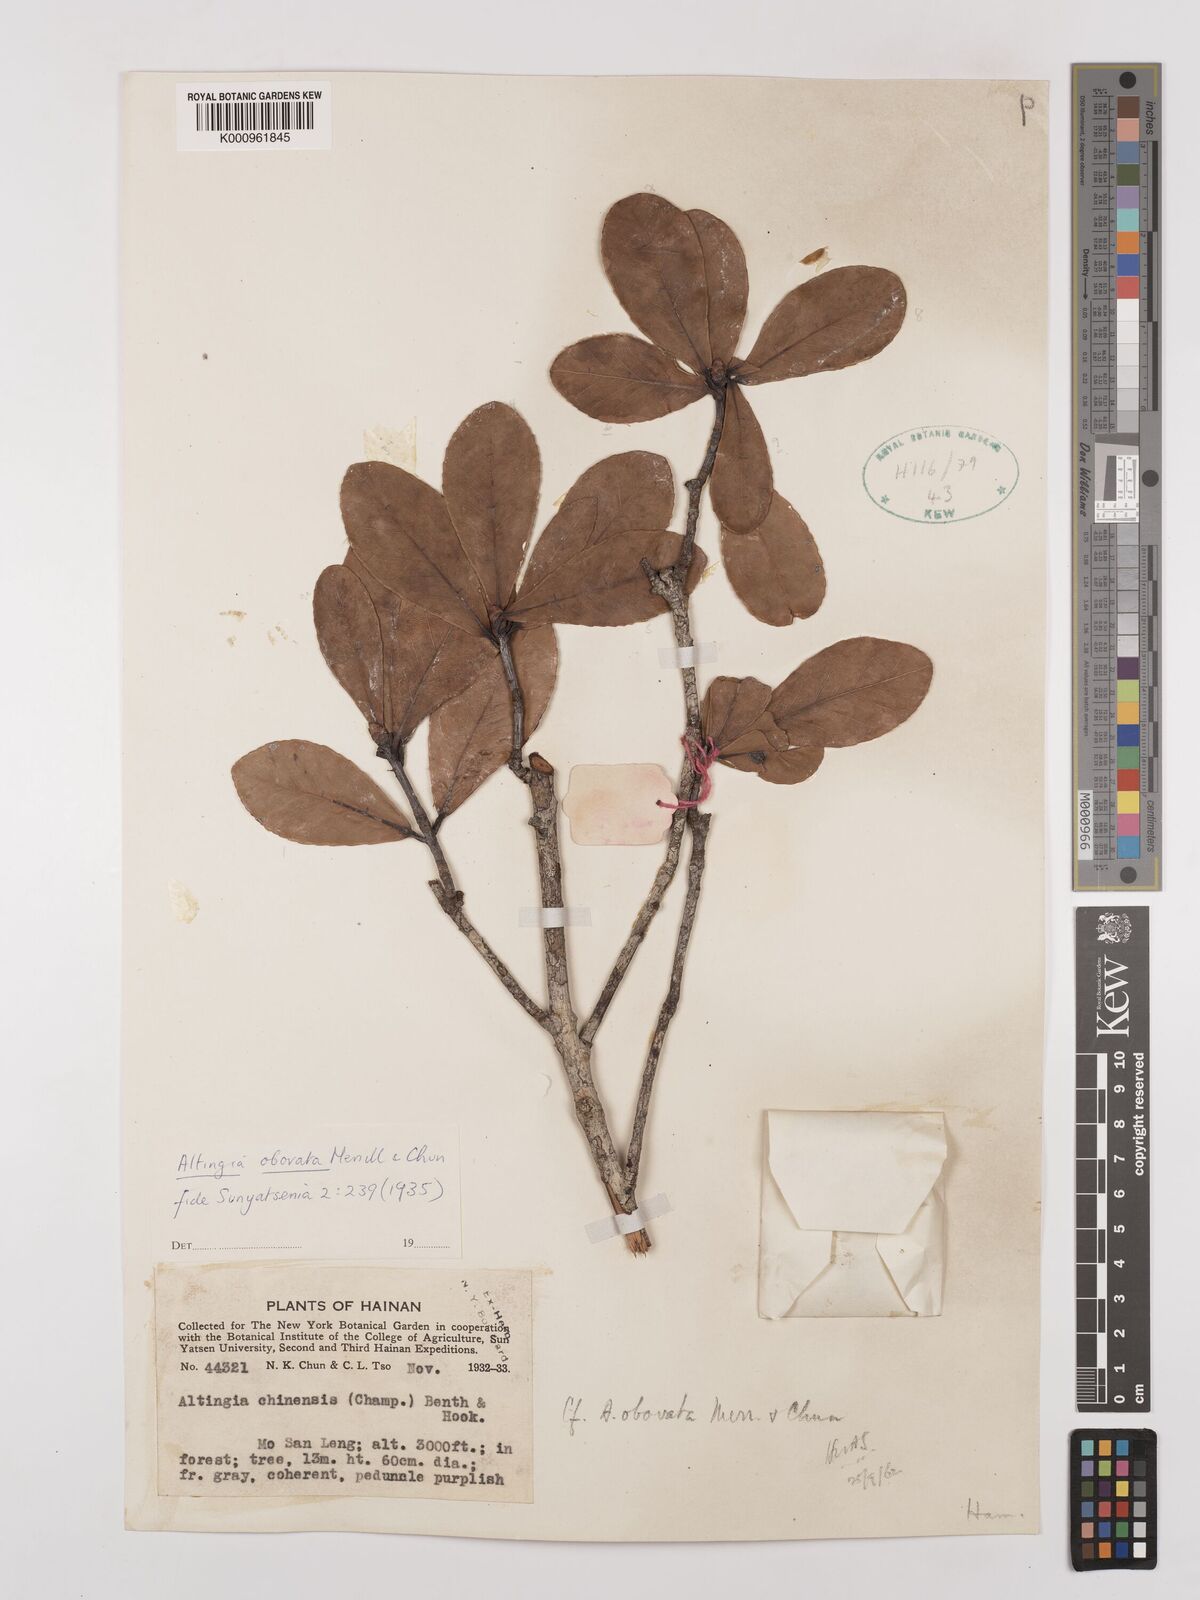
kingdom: Plantae
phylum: Tracheophyta
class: Magnoliopsida
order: Saxifragales
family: Altingiaceae
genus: Liquidambar
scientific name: Liquidambar gracilipes
